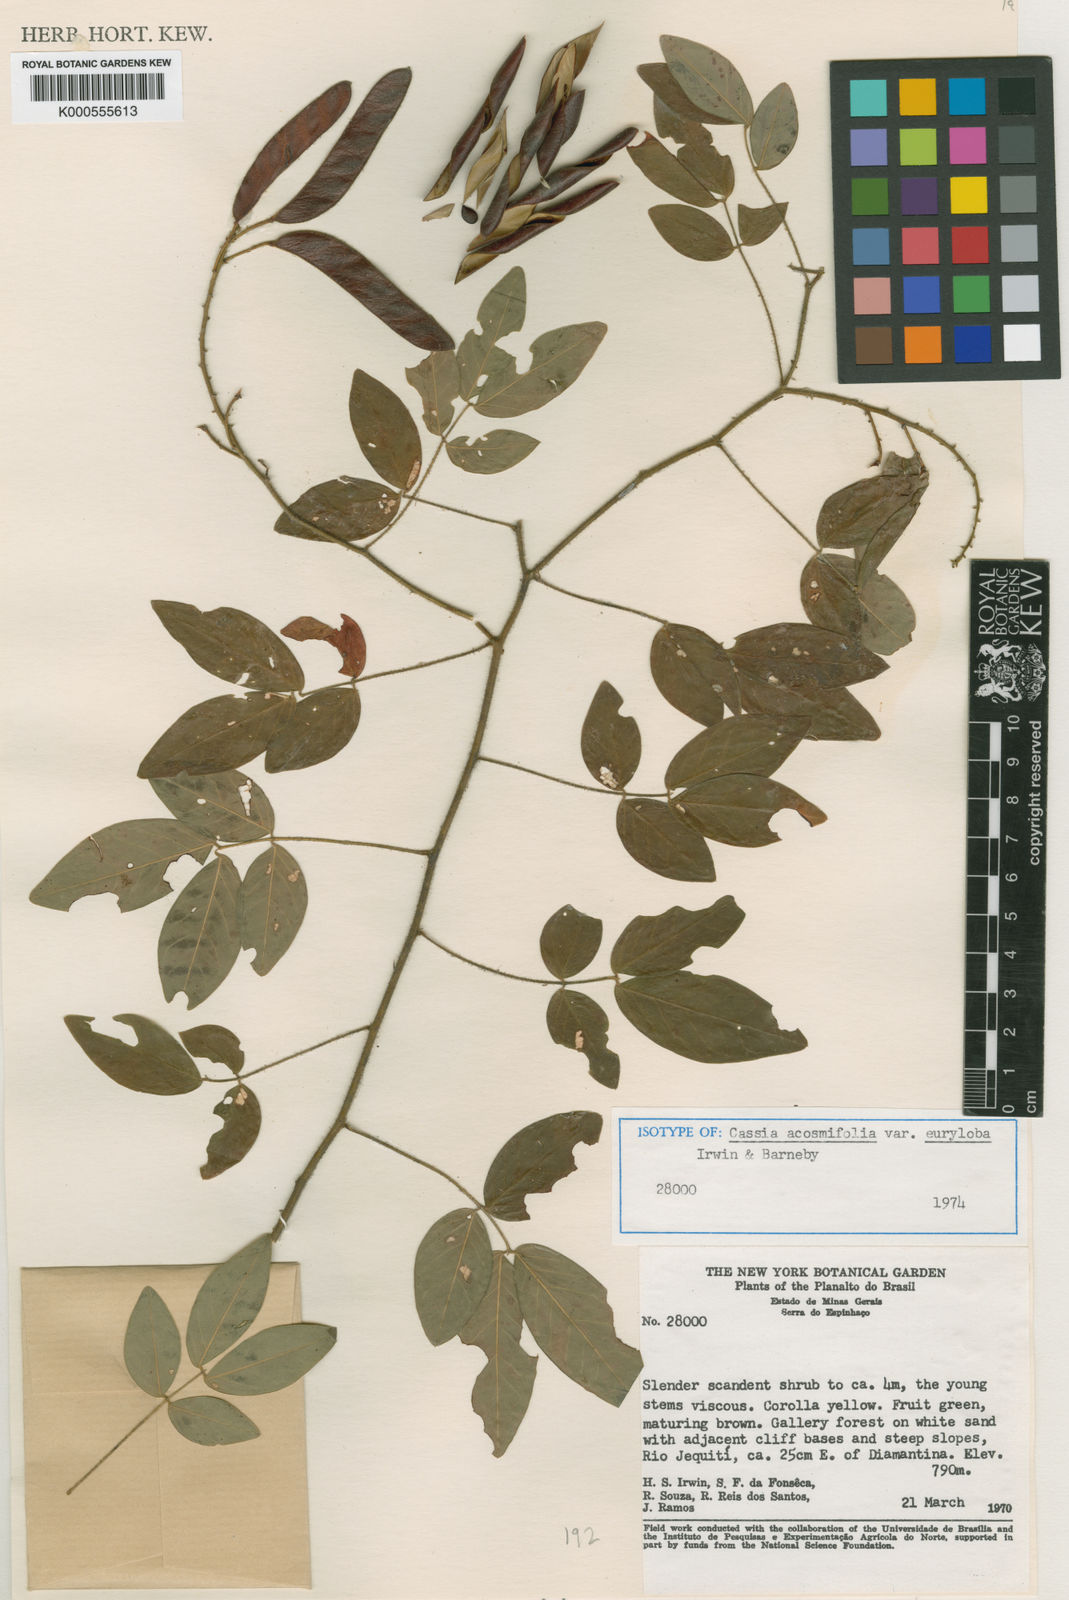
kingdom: Plantae
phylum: Tracheophyta
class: Magnoliopsida
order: Fabales
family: Fabaceae
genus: Chamaecrista
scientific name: Chamaecrista acosmifolia
